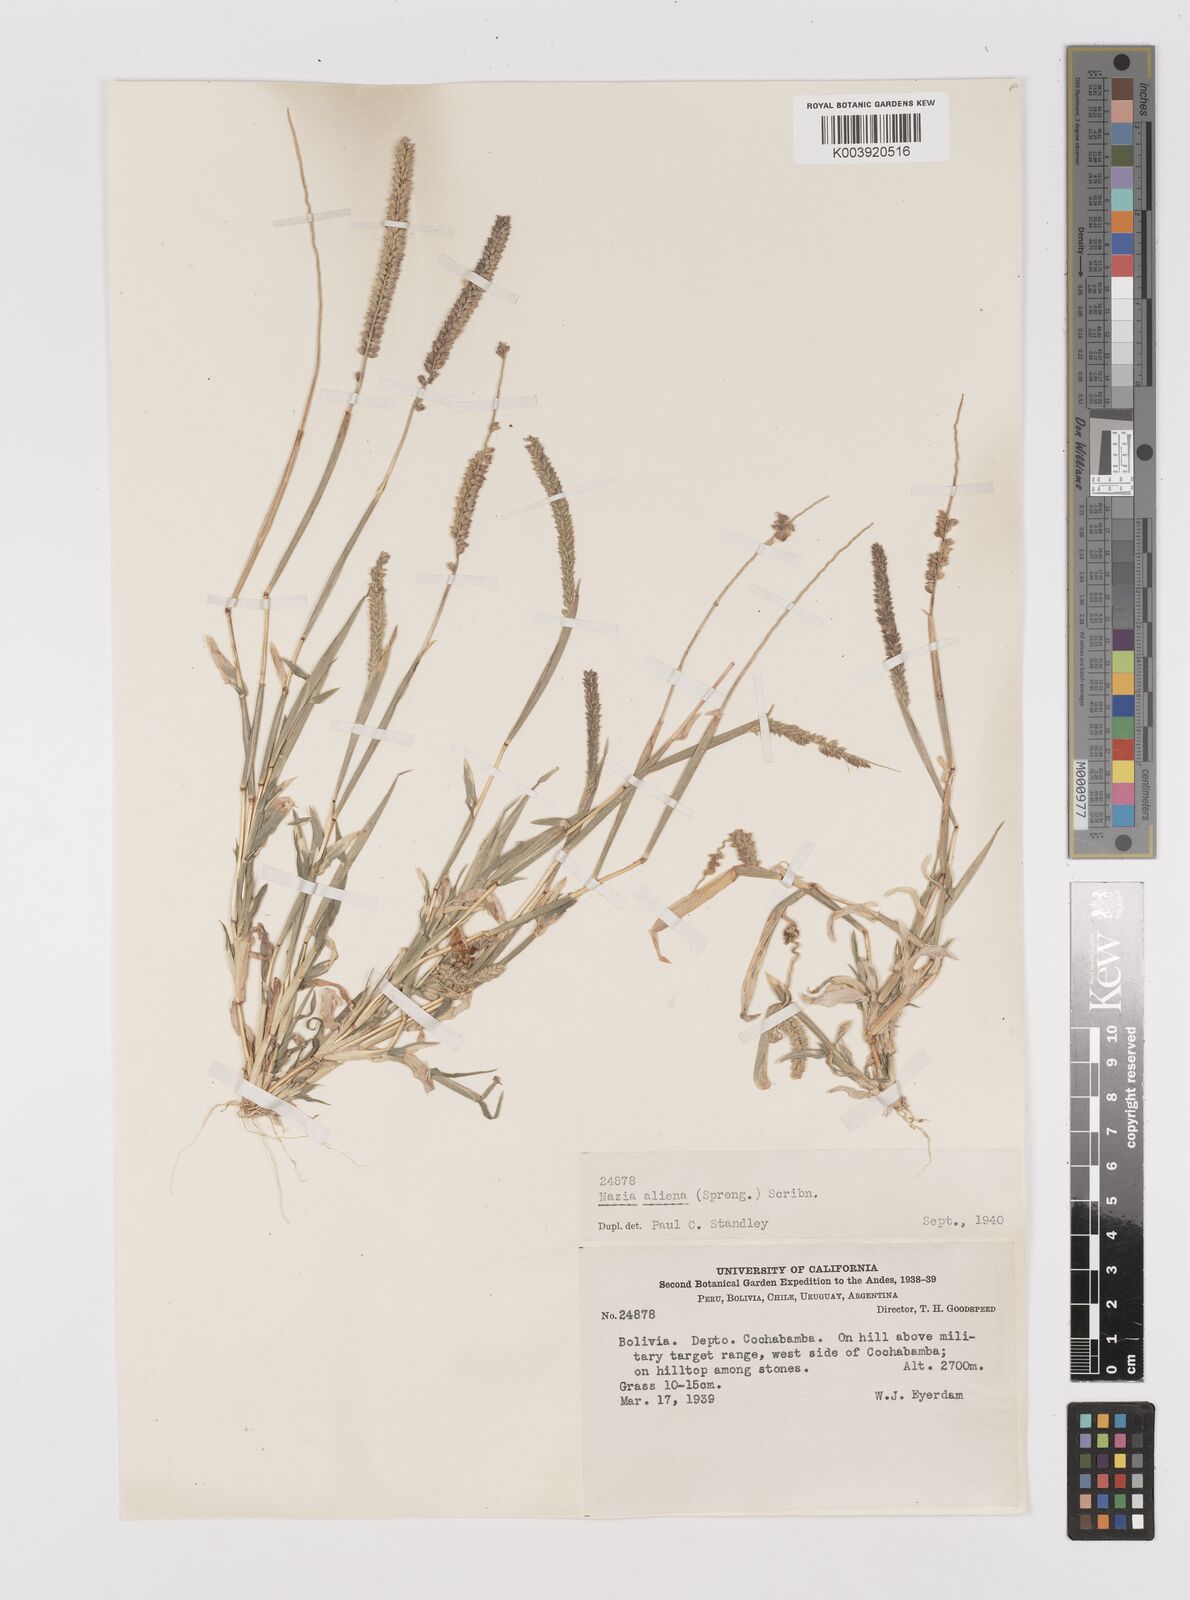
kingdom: Plantae
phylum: Tracheophyta
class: Liliopsida
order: Poales
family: Poaceae
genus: Tragus
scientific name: Tragus berteronianus
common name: African bur-grass
